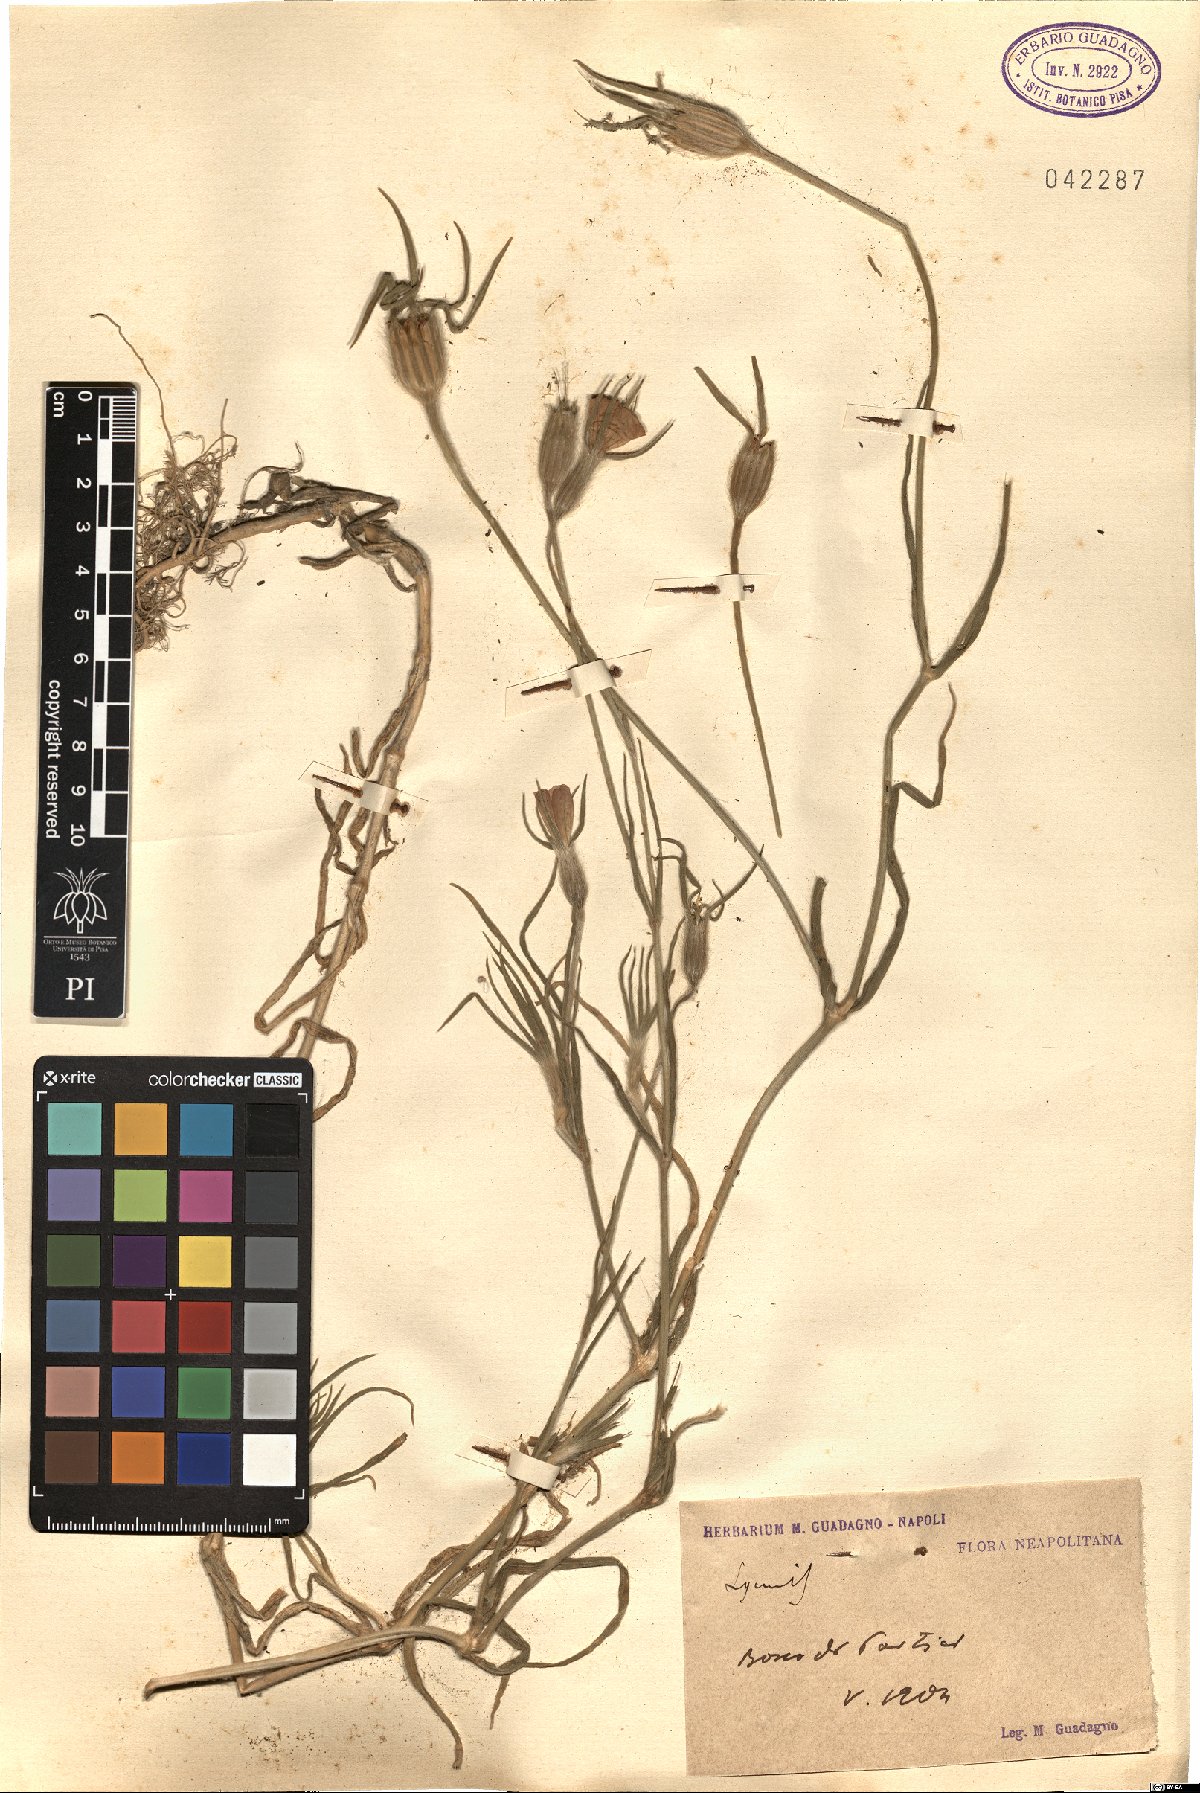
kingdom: Plantae
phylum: Tracheophyta
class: Magnoliopsida
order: Caryophyllales
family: Caryophyllaceae
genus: Silene
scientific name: Silene
